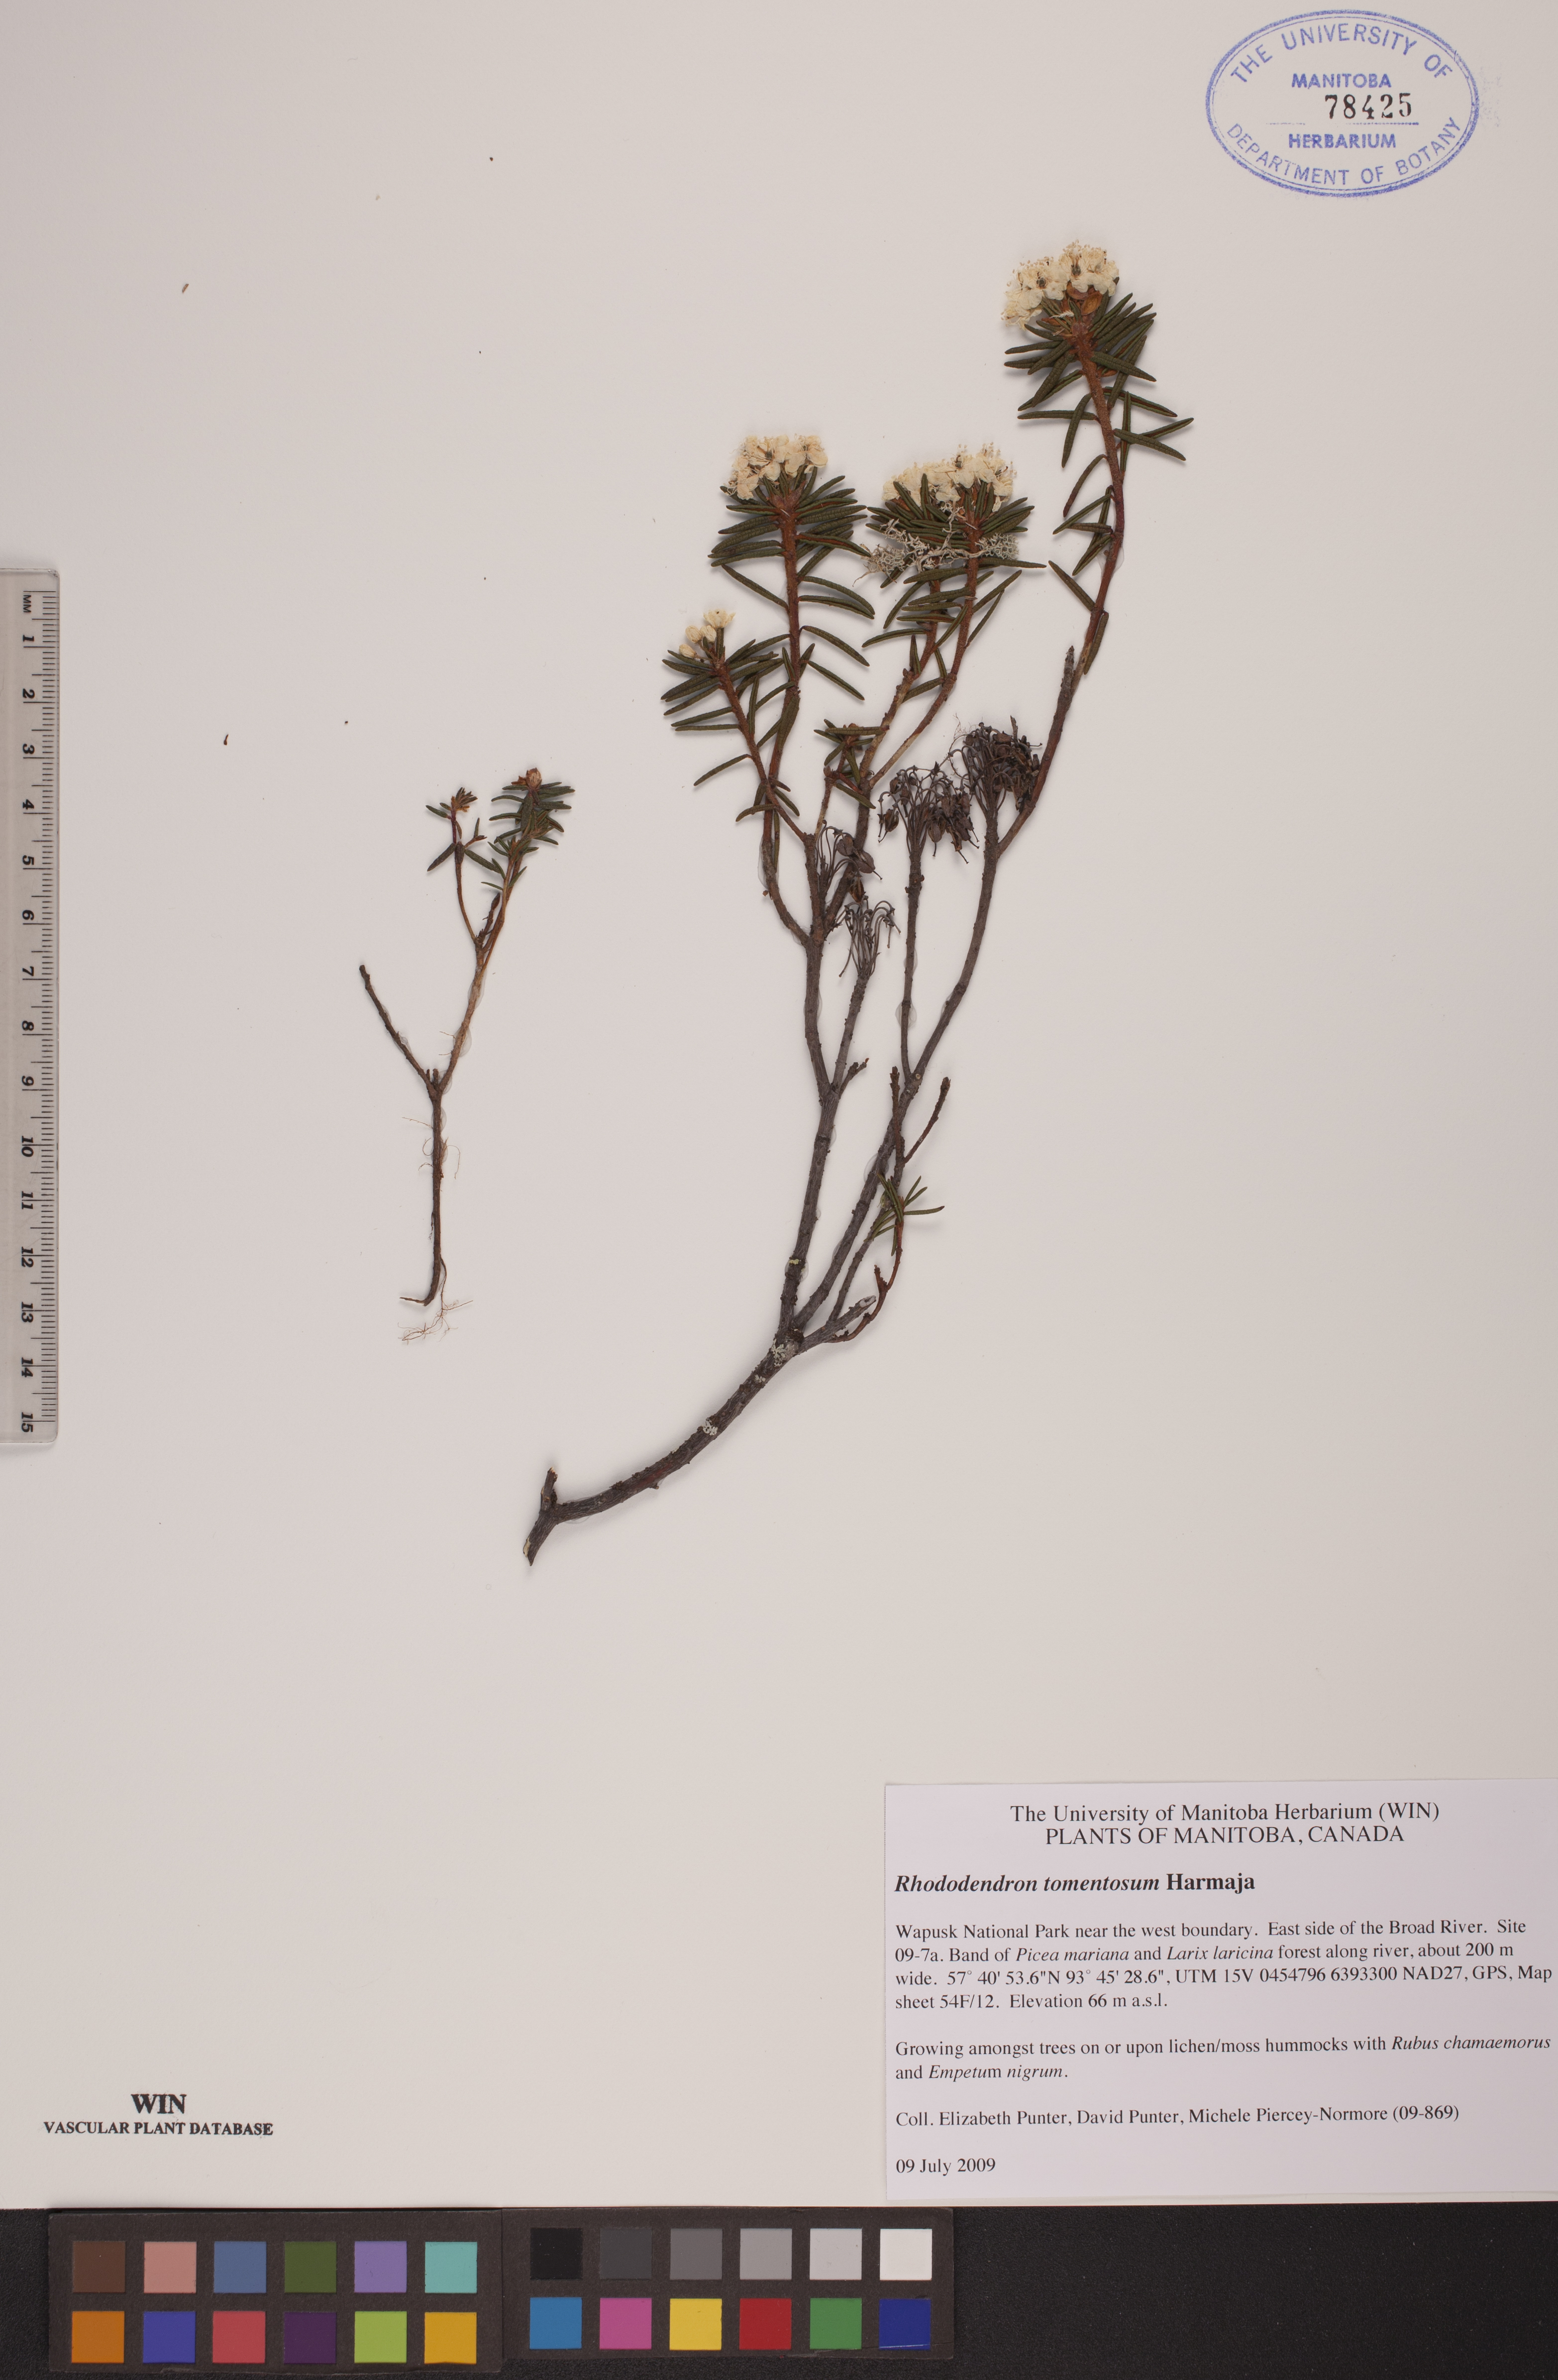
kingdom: Plantae
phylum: Tracheophyta
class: Magnoliopsida
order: Ericales
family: Ericaceae
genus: Rhododendron
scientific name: Rhododendron tomentosum
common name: Marsh labrador tea
